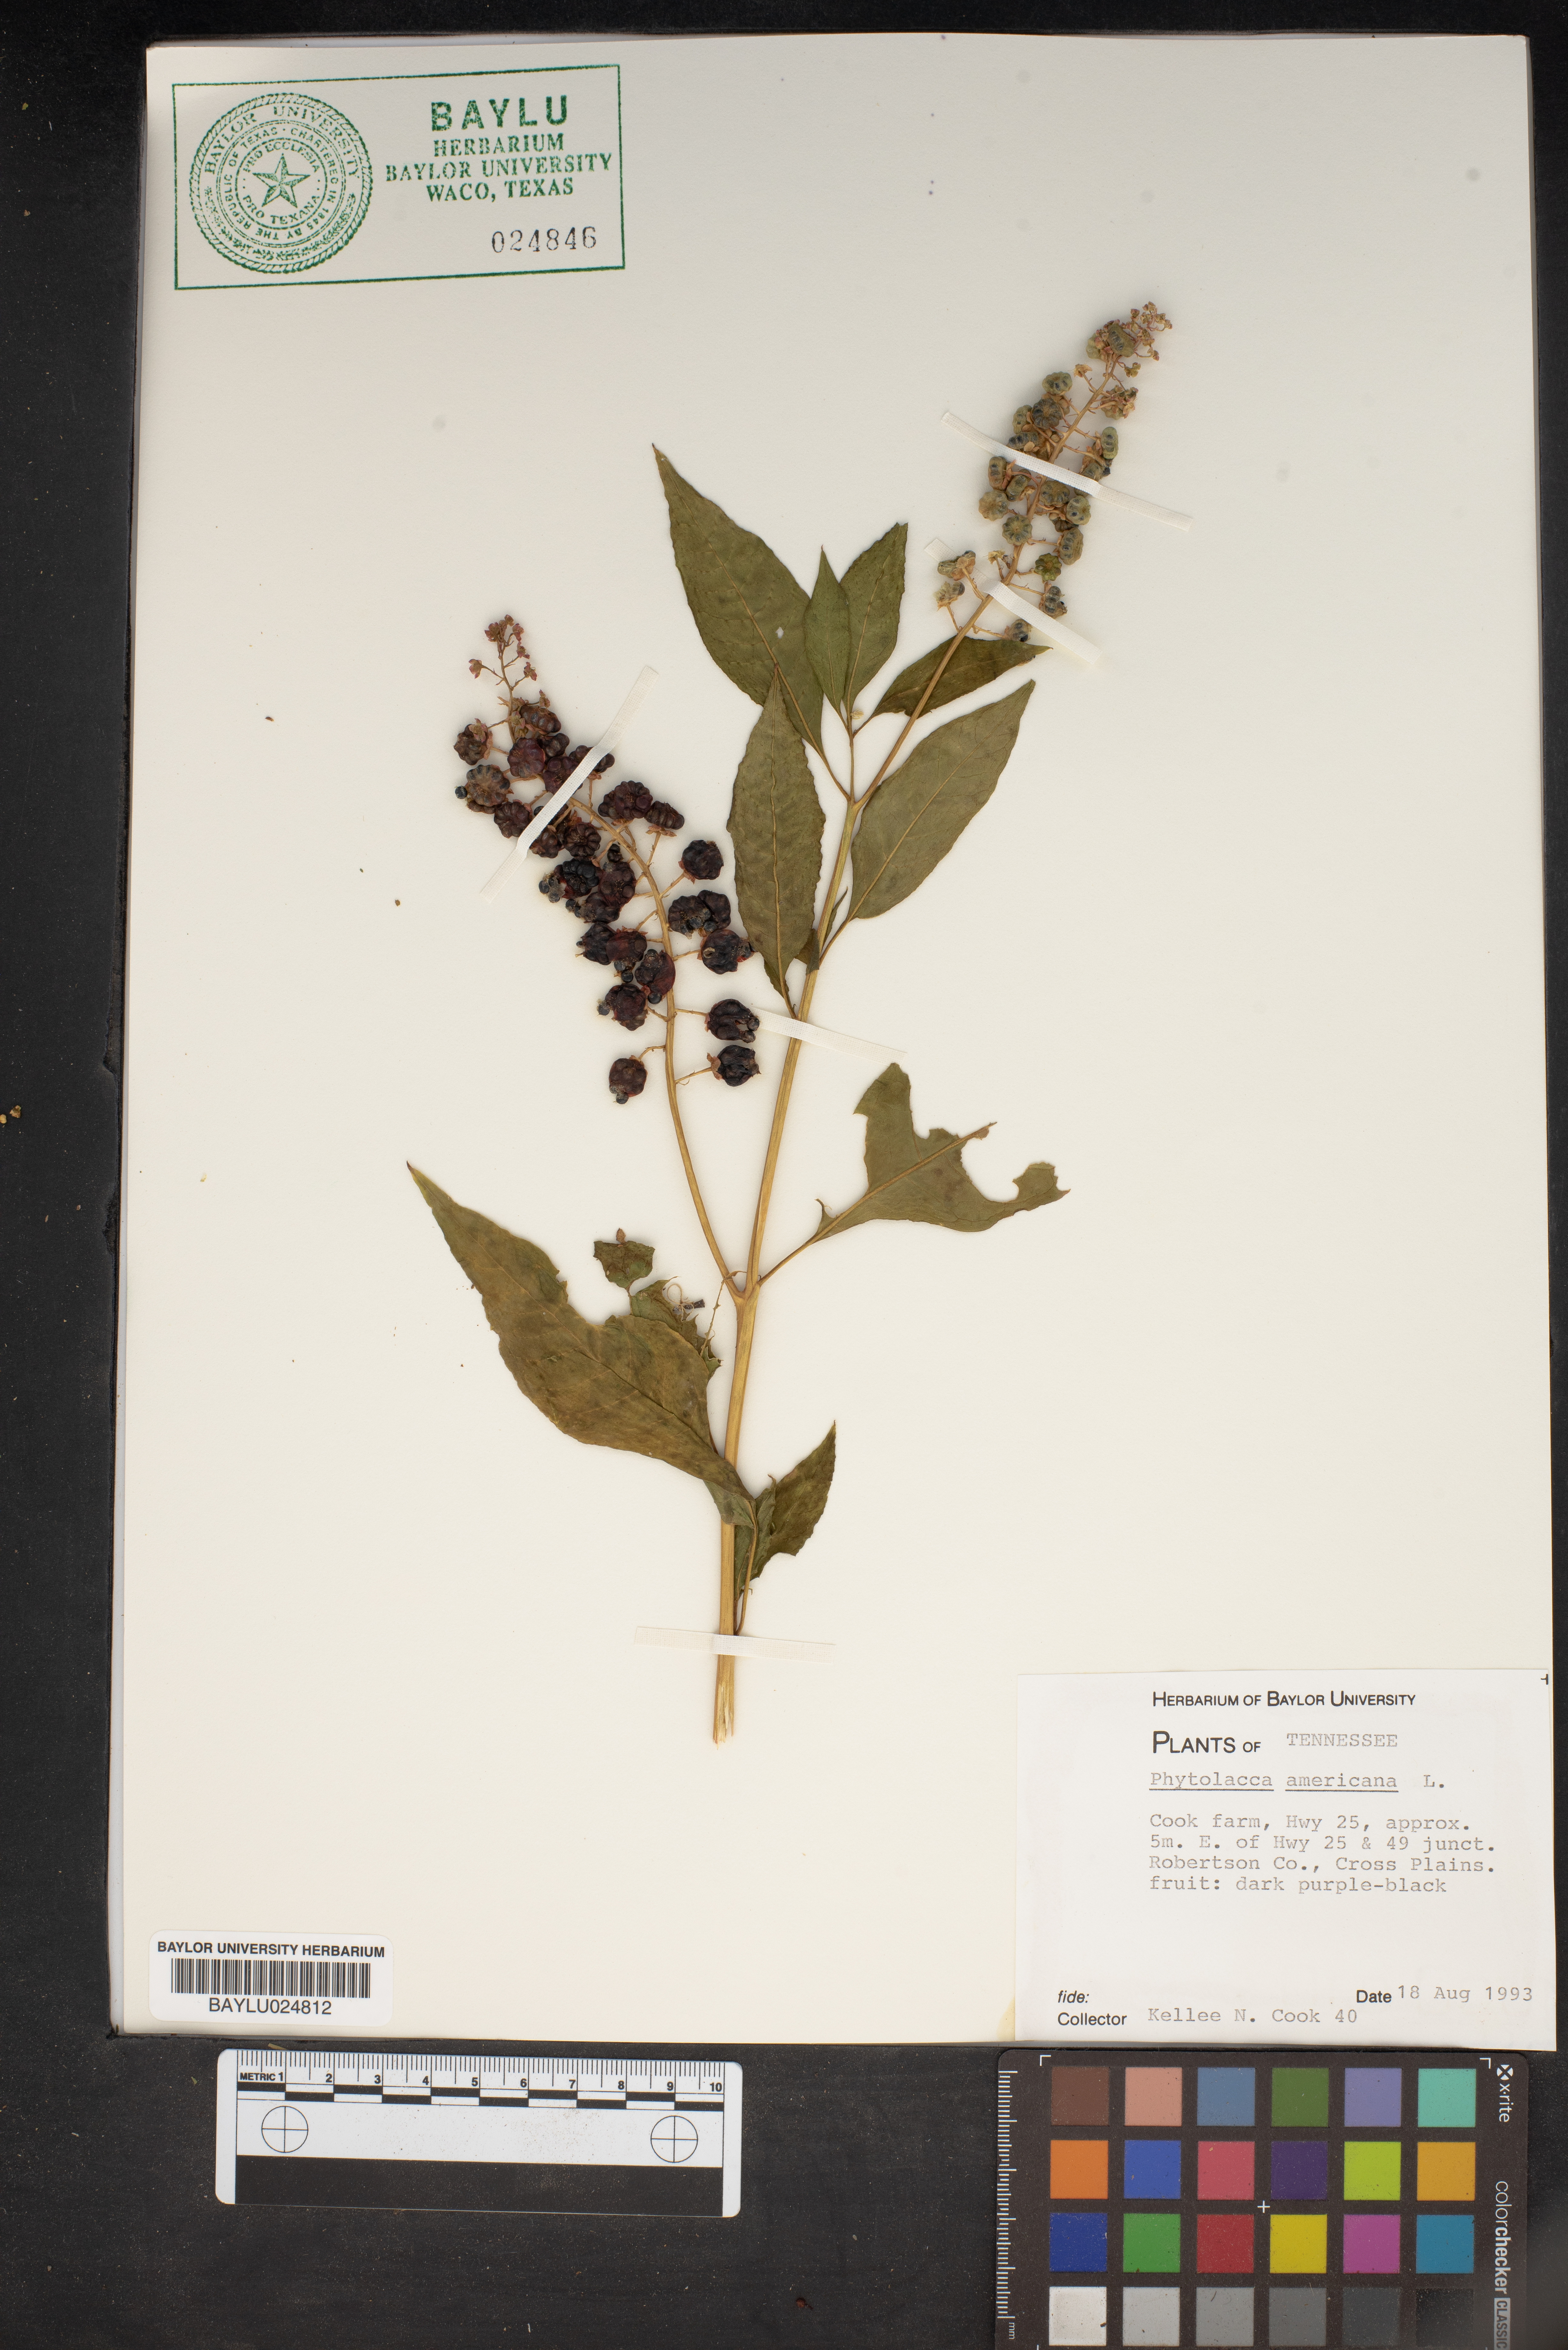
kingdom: Plantae
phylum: Tracheophyta
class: Magnoliopsida
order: Caryophyllales
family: Phytolaccaceae
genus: Phytolacca
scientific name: Phytolacca americana
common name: American pokeweed
